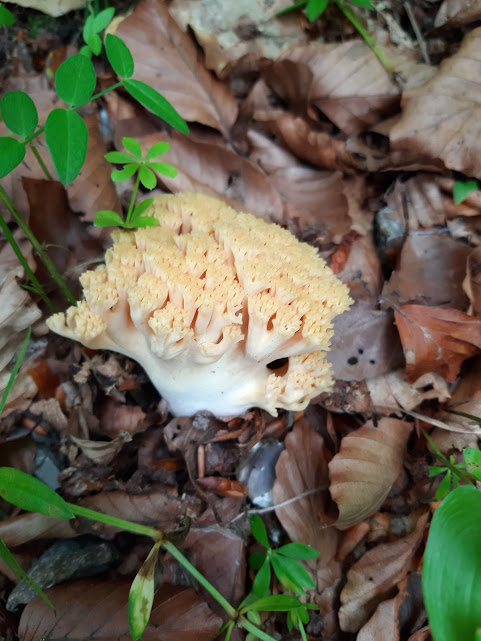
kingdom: Fungi
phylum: Basidiomycota
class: Agaricomycetes
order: Gomphales
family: Gomphaceae
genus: Ramaria
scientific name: Ramaria fagetorum
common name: abrikos-koralsvamp
